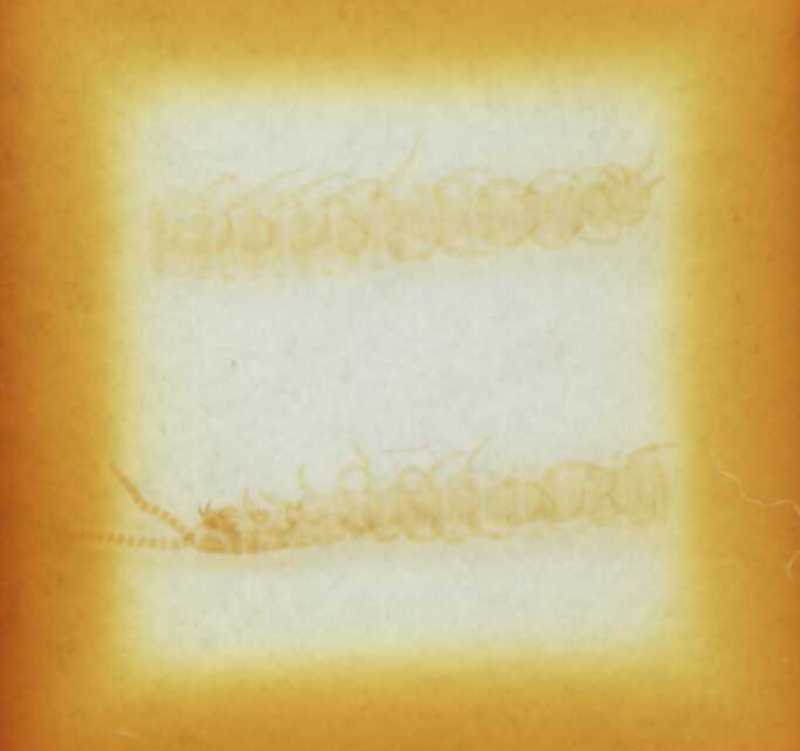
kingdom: Animalia
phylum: Arthropoda
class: Chilopoda
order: Geophilomorpha
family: Linotaeniidae
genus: Strigamia
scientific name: Strigamia transsilvanica
